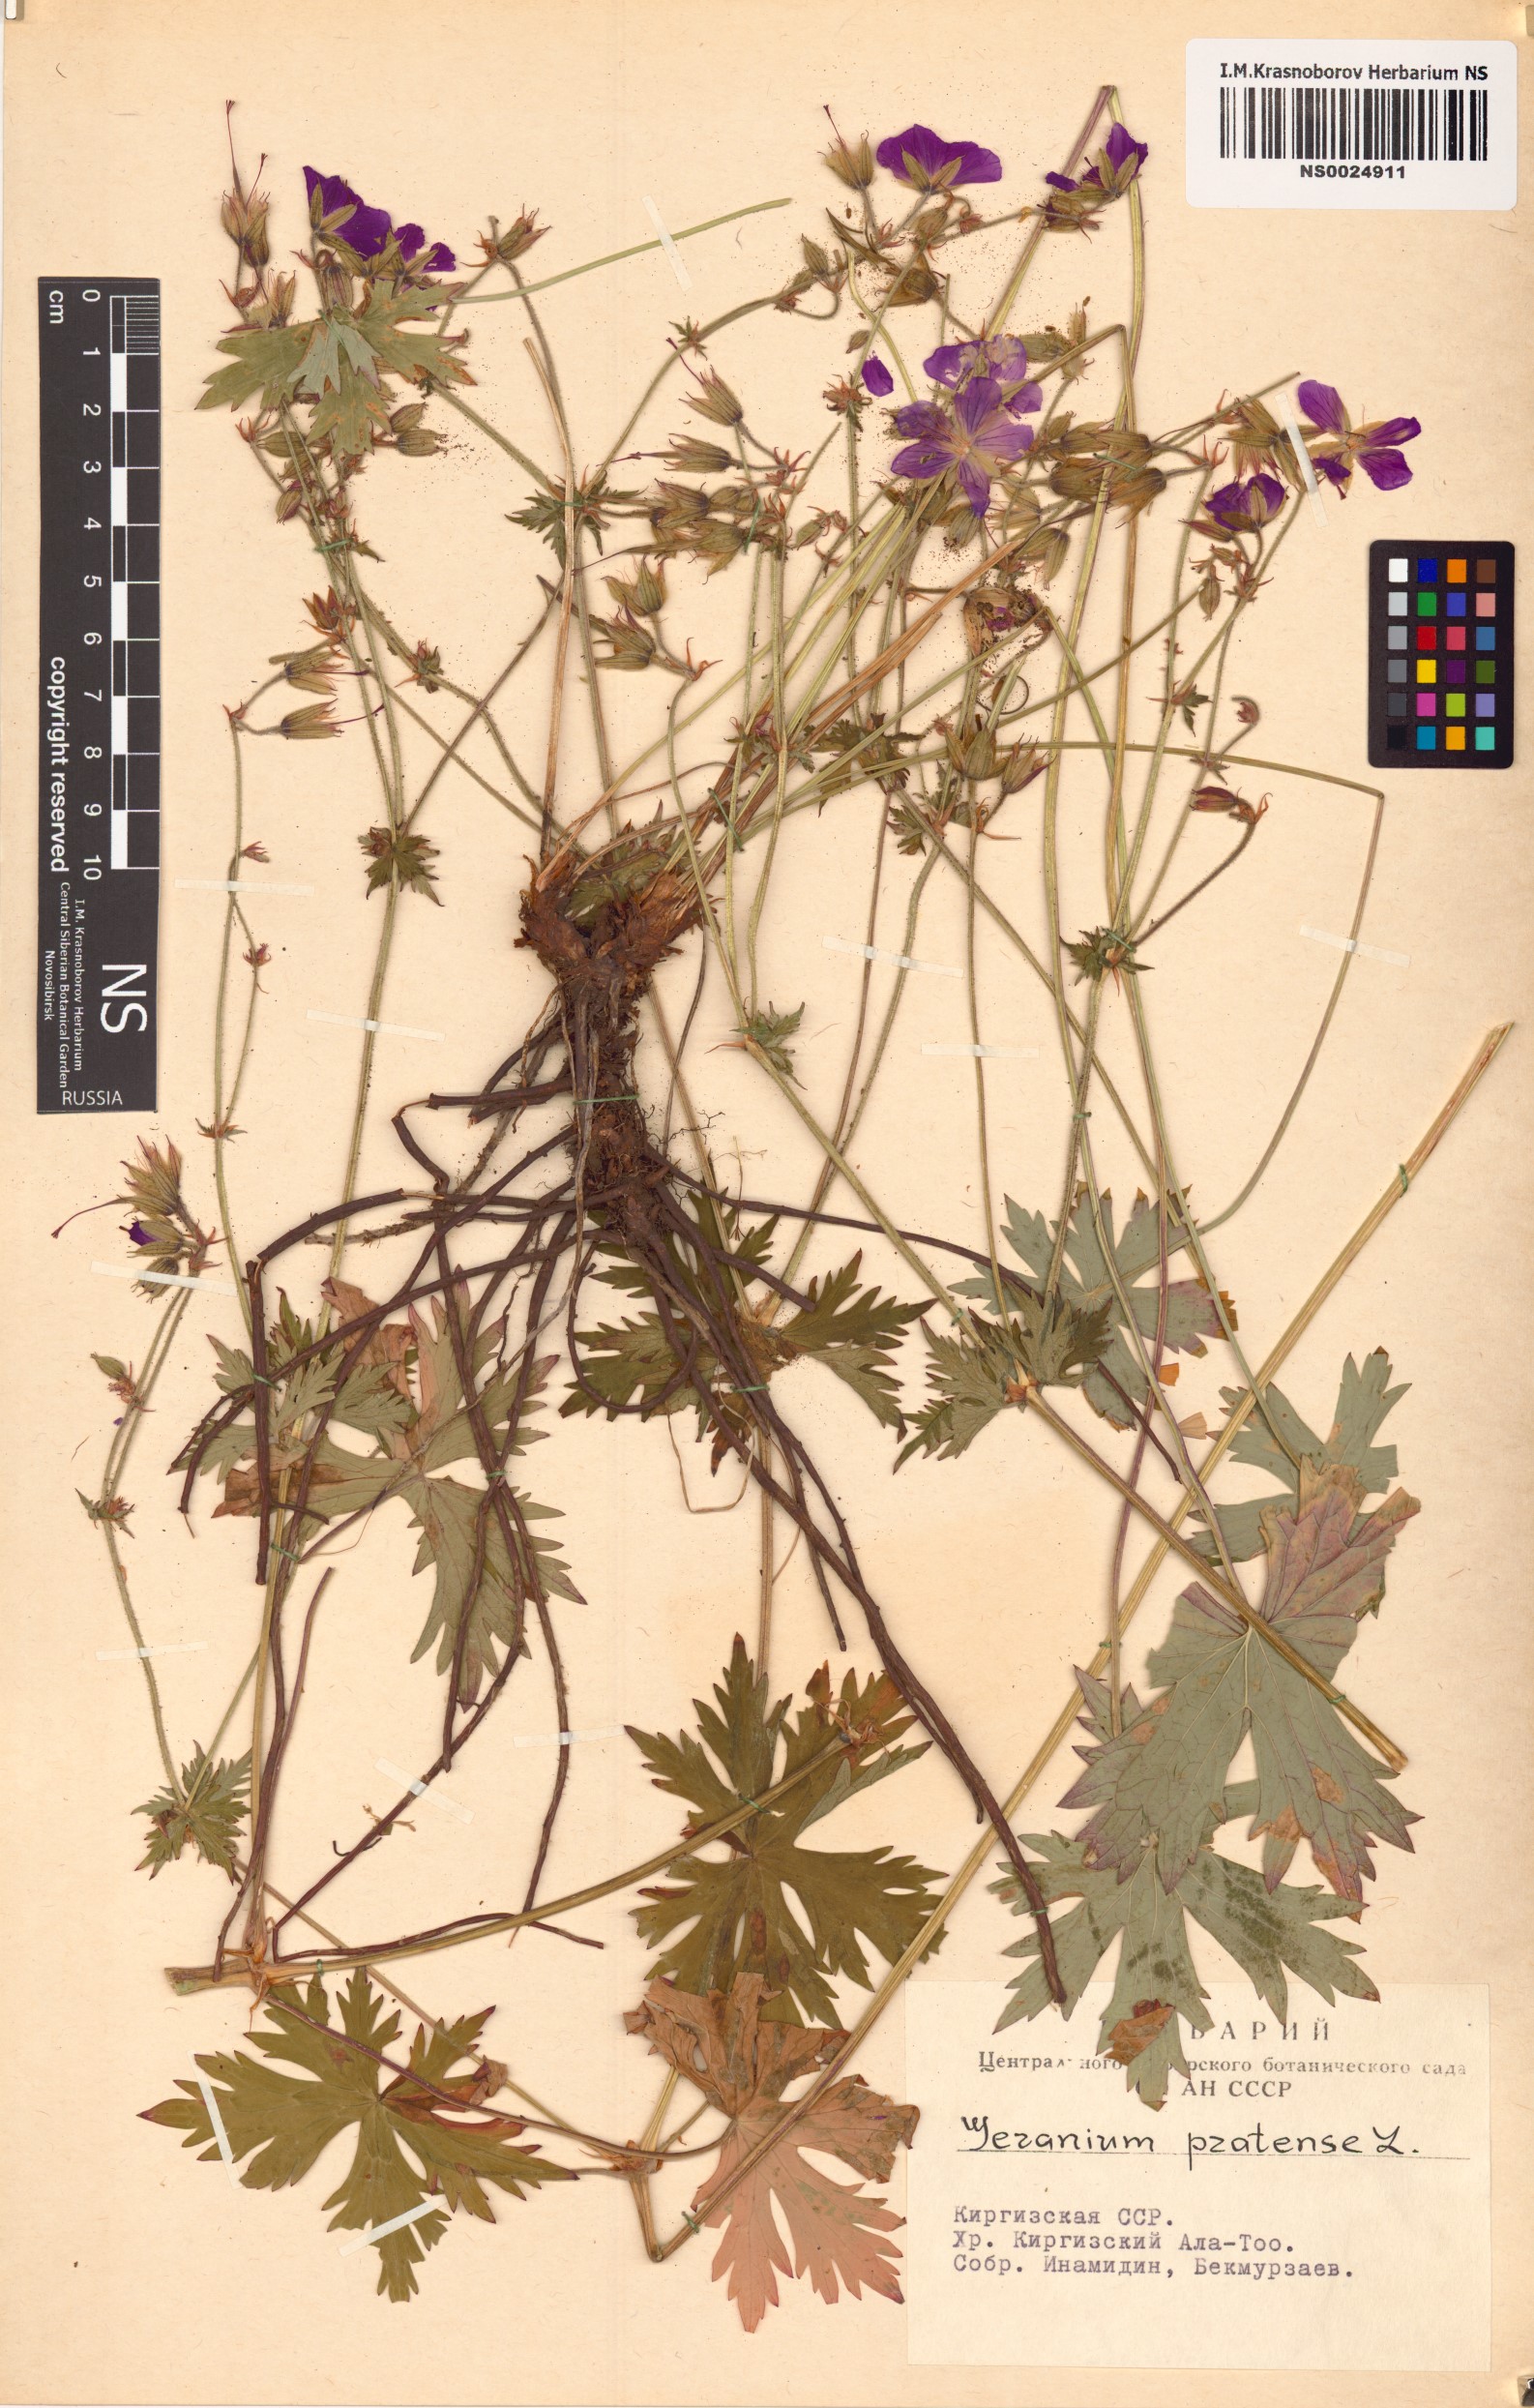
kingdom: Plantae
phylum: Tracheophyta
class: Magnoliopsida
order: Geraniales
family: Geraniaceae
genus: Geranium
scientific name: Geranium pratense
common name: Meadow crane's-bill
